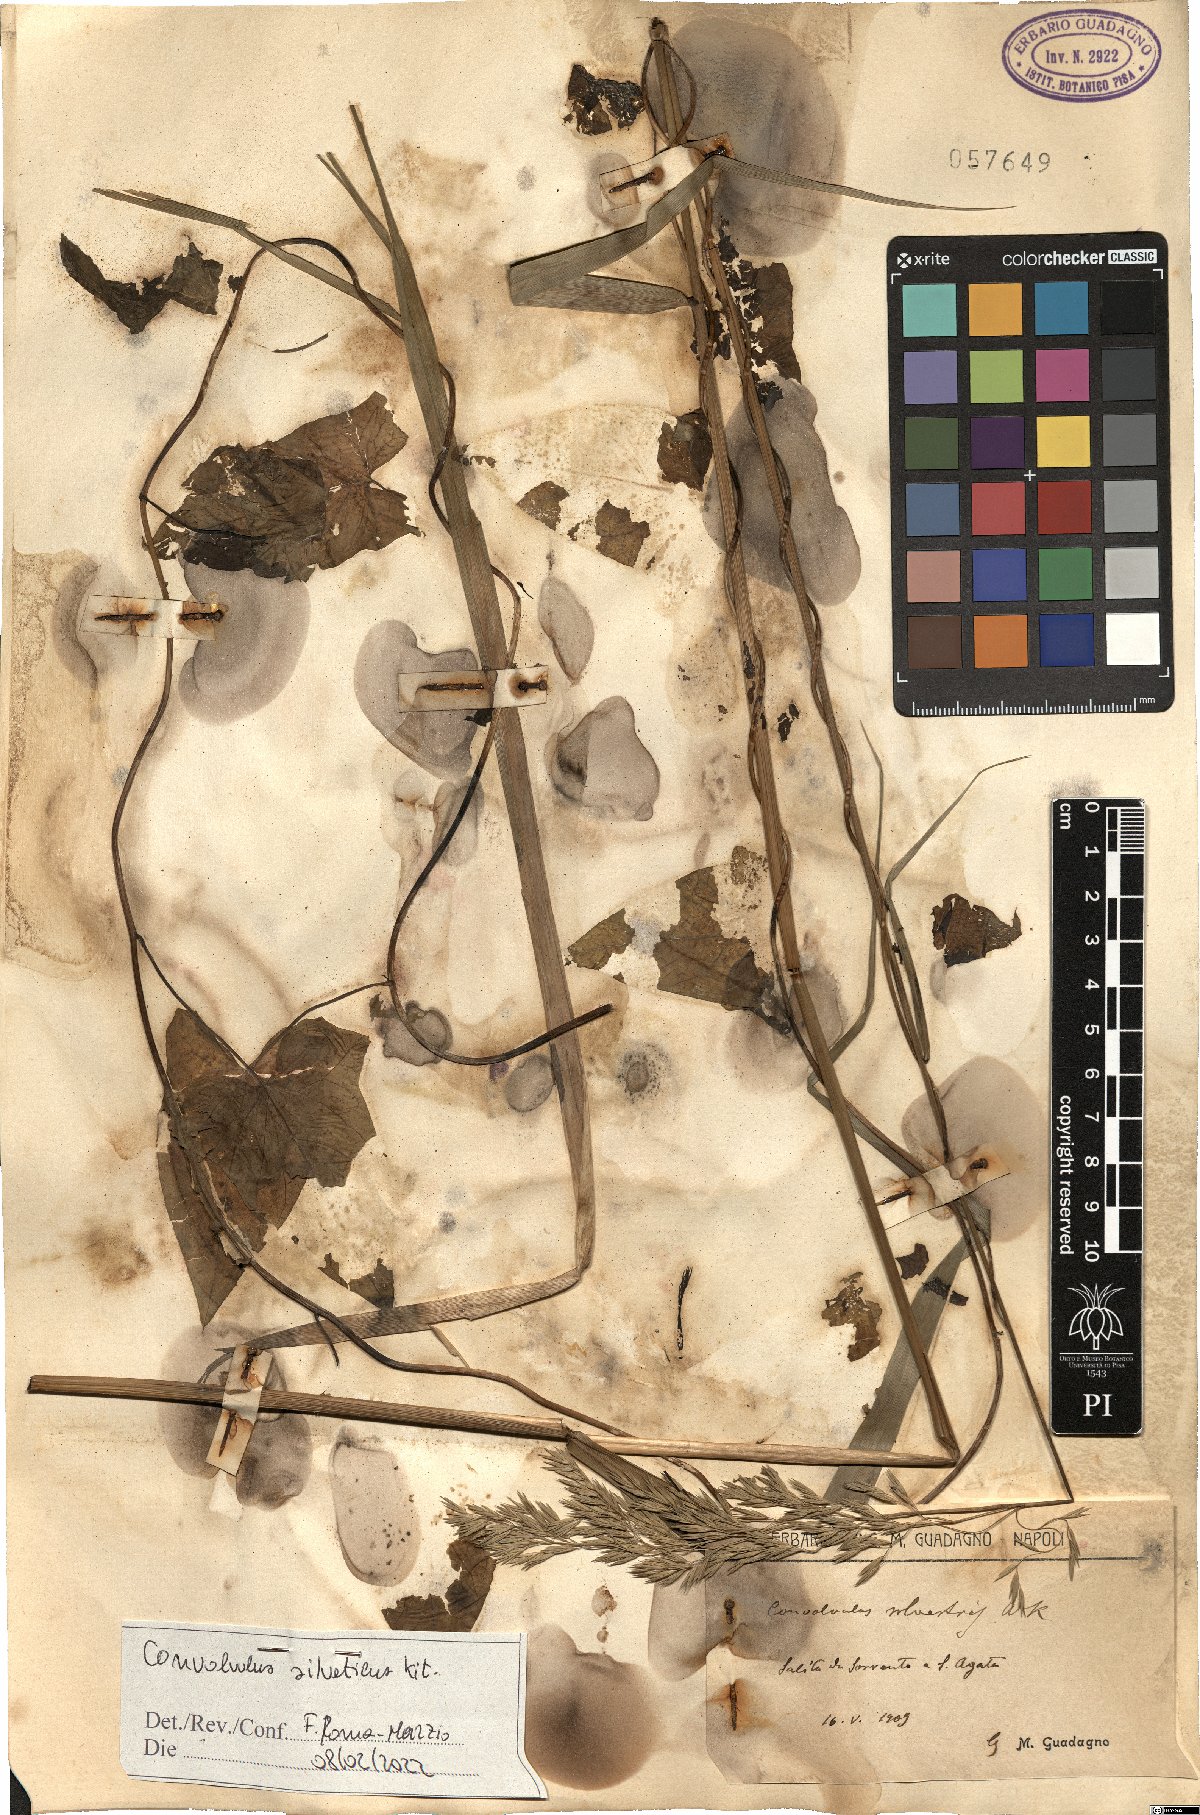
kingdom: Plantae
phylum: Tracheophyta
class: Magnoliopsida
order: Solanales
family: Convolvulaceae
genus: Calystegia
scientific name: Calystegia silvatica
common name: Large bindweed
